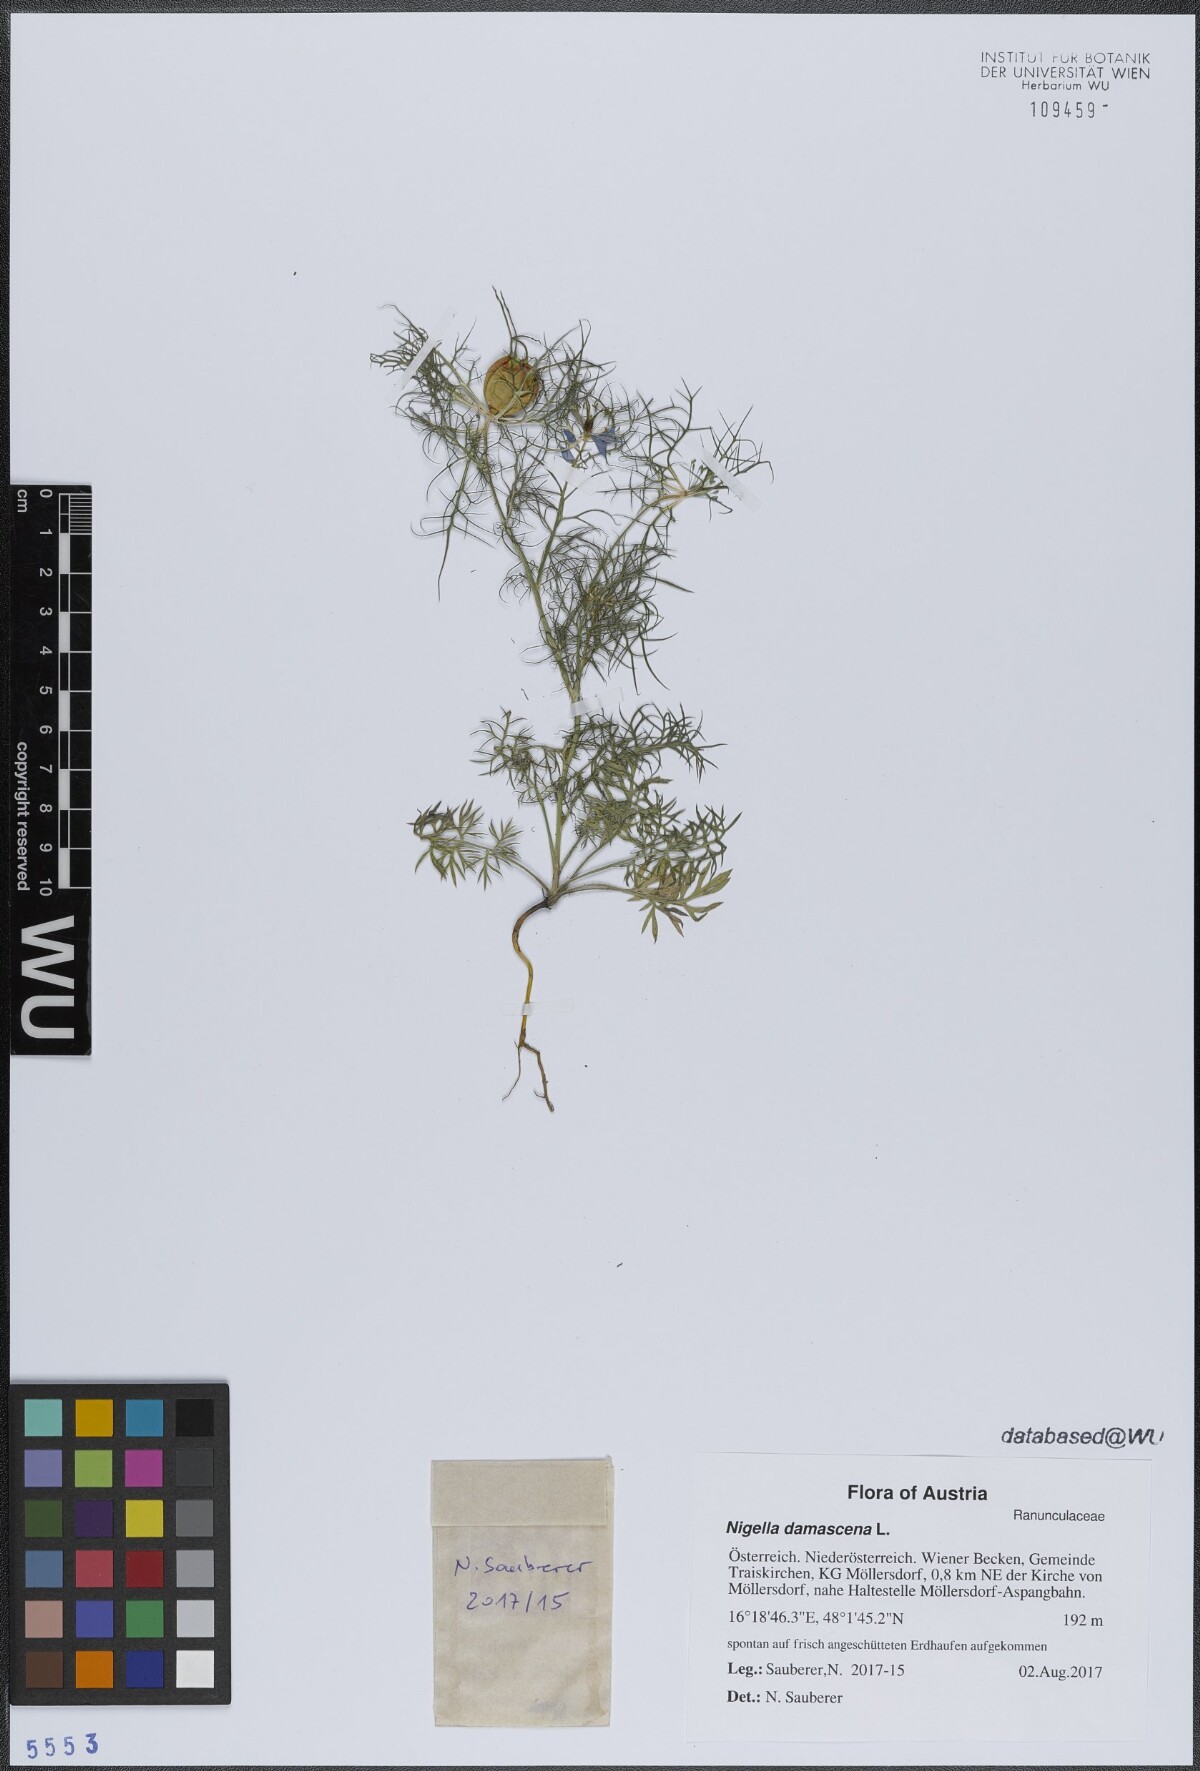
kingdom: Plantae
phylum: Tracheophyta
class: Magnoliopsida
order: Ranunculales
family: Ranunculaceae
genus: Nigella
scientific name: Nigella damascena
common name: Love-in-a-mist
